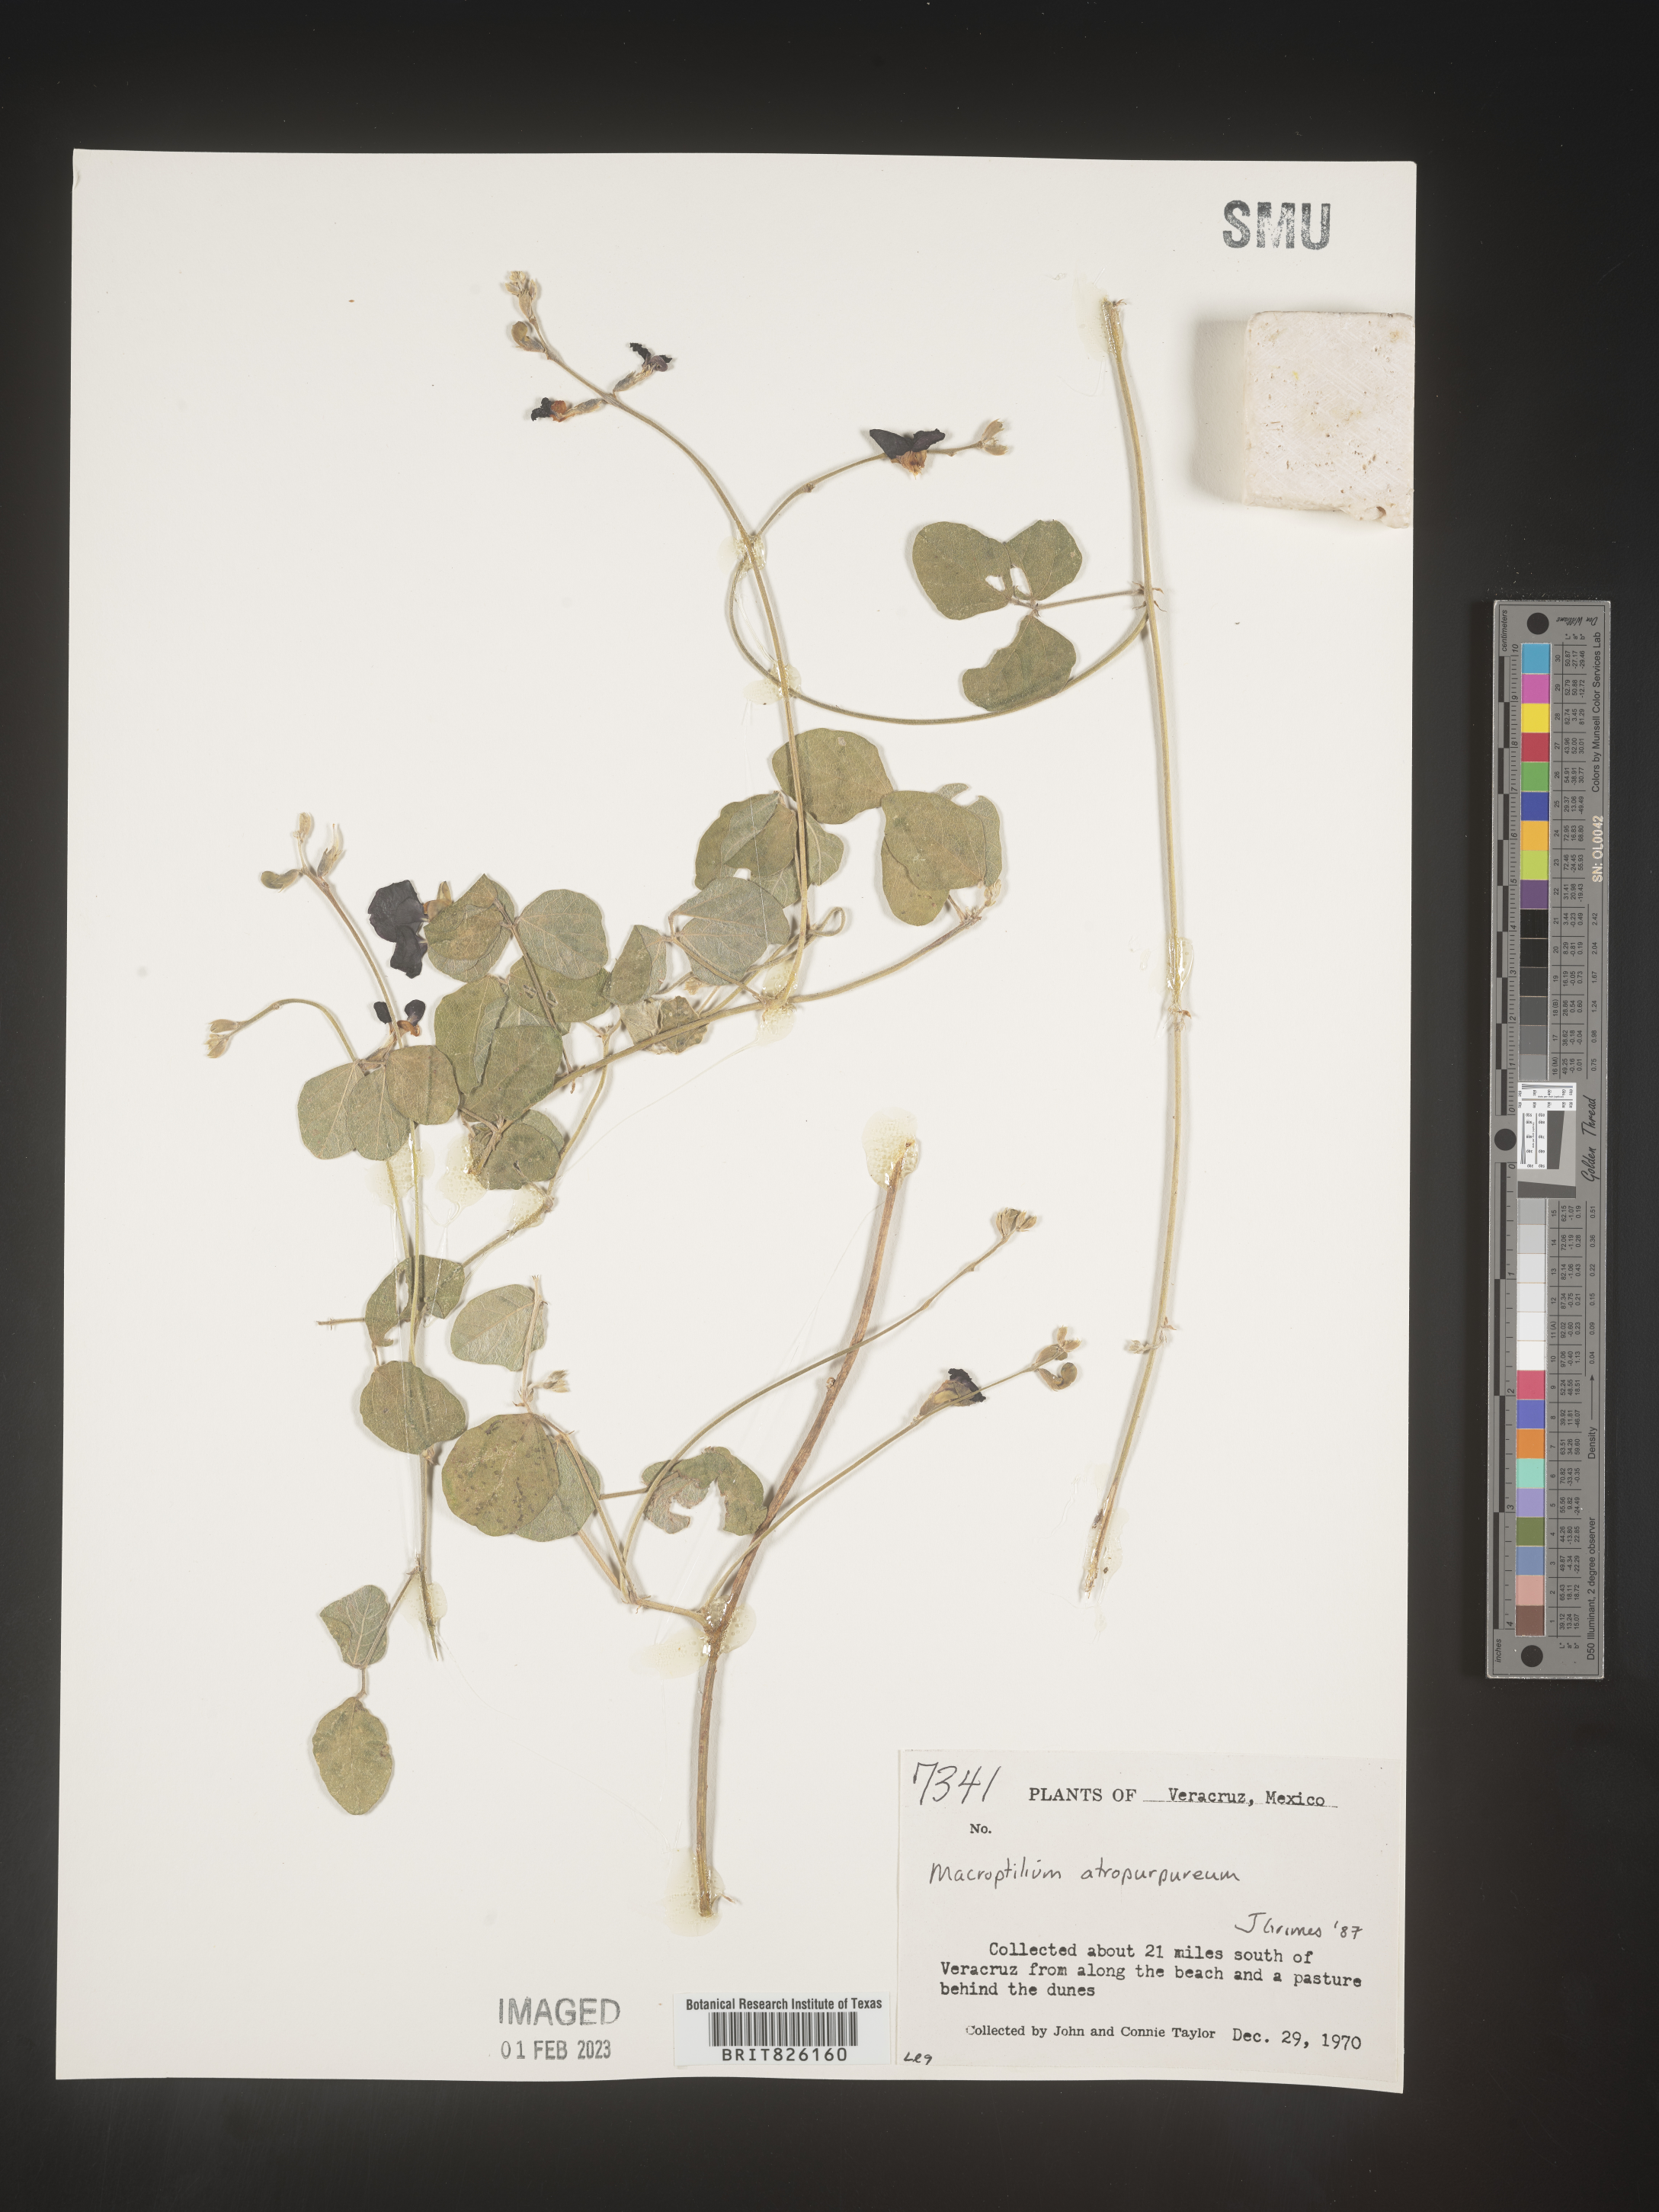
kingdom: Plantae
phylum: Tracheophyta
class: Magnoliopsida
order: Fabales
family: Fabaceae
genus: Macroptilium
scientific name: Macroptilium
